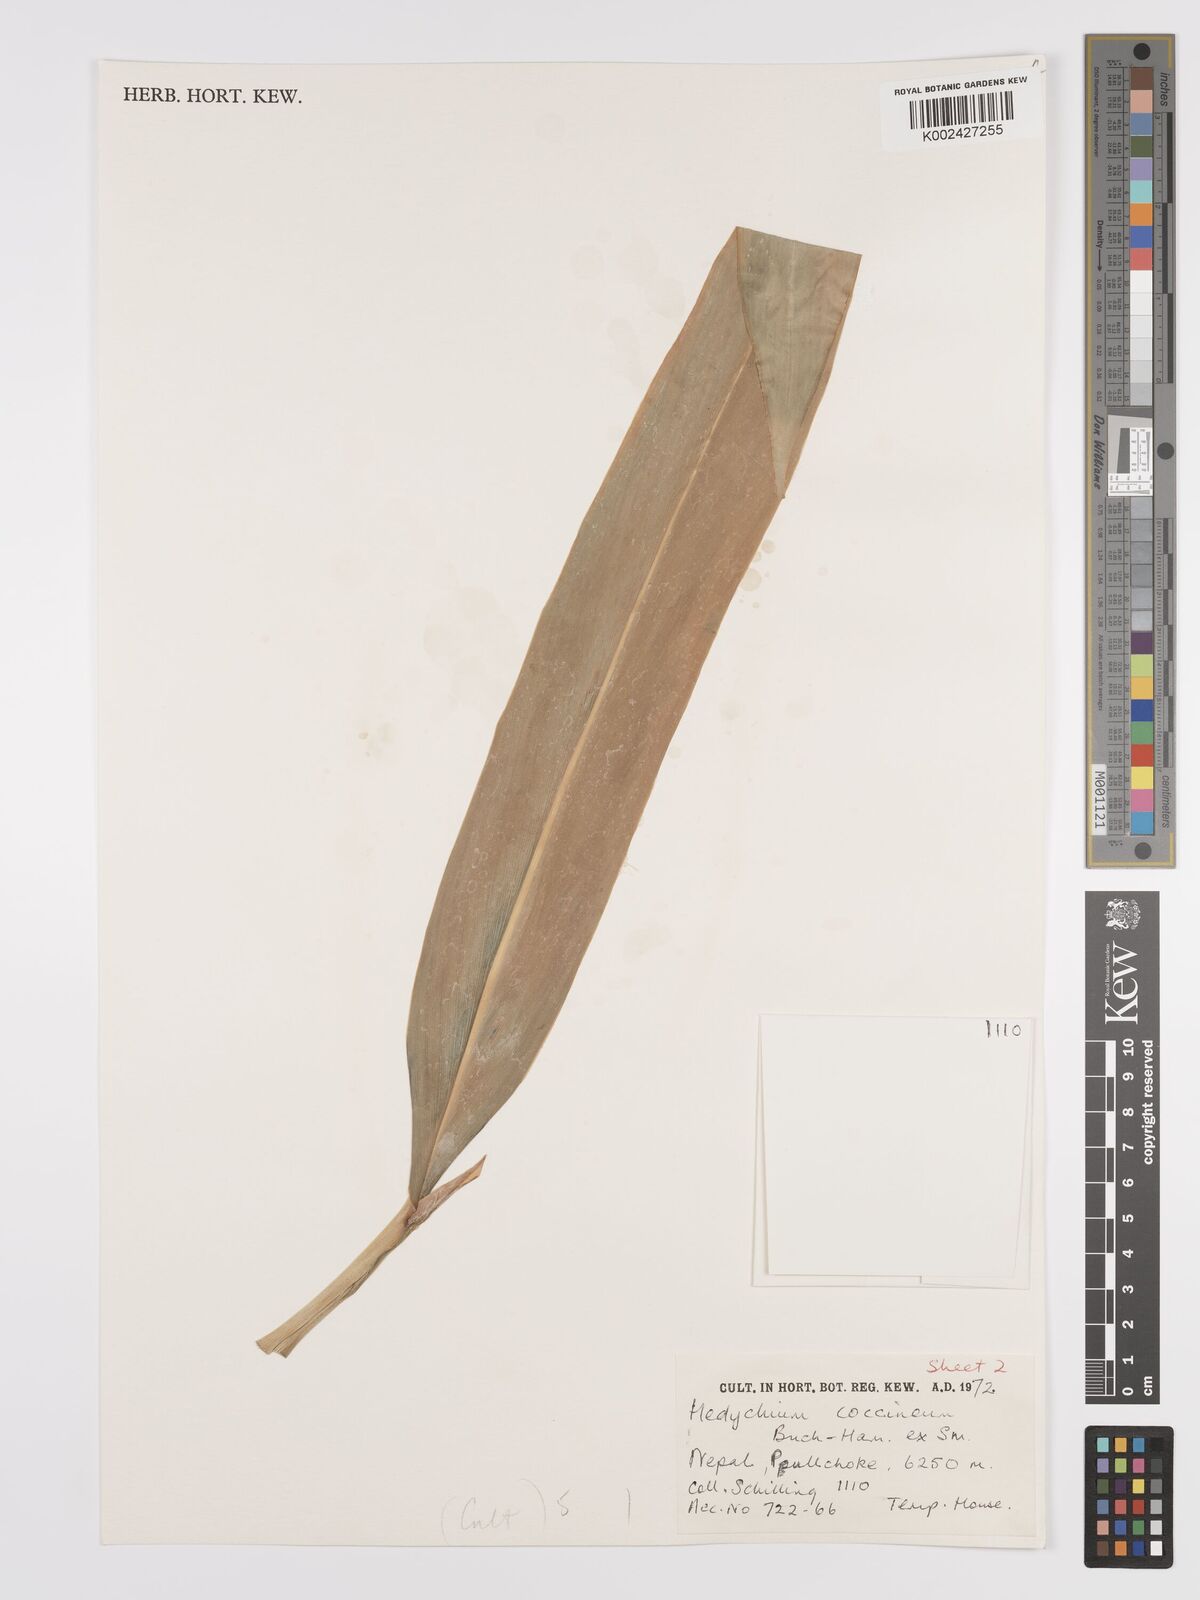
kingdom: Plantae
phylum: Tracheophyta
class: Liliopsida
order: Zingiberales
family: Zingiberaceae
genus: Hedychium
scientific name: Hedychium coccineum
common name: Red ginger-lily
